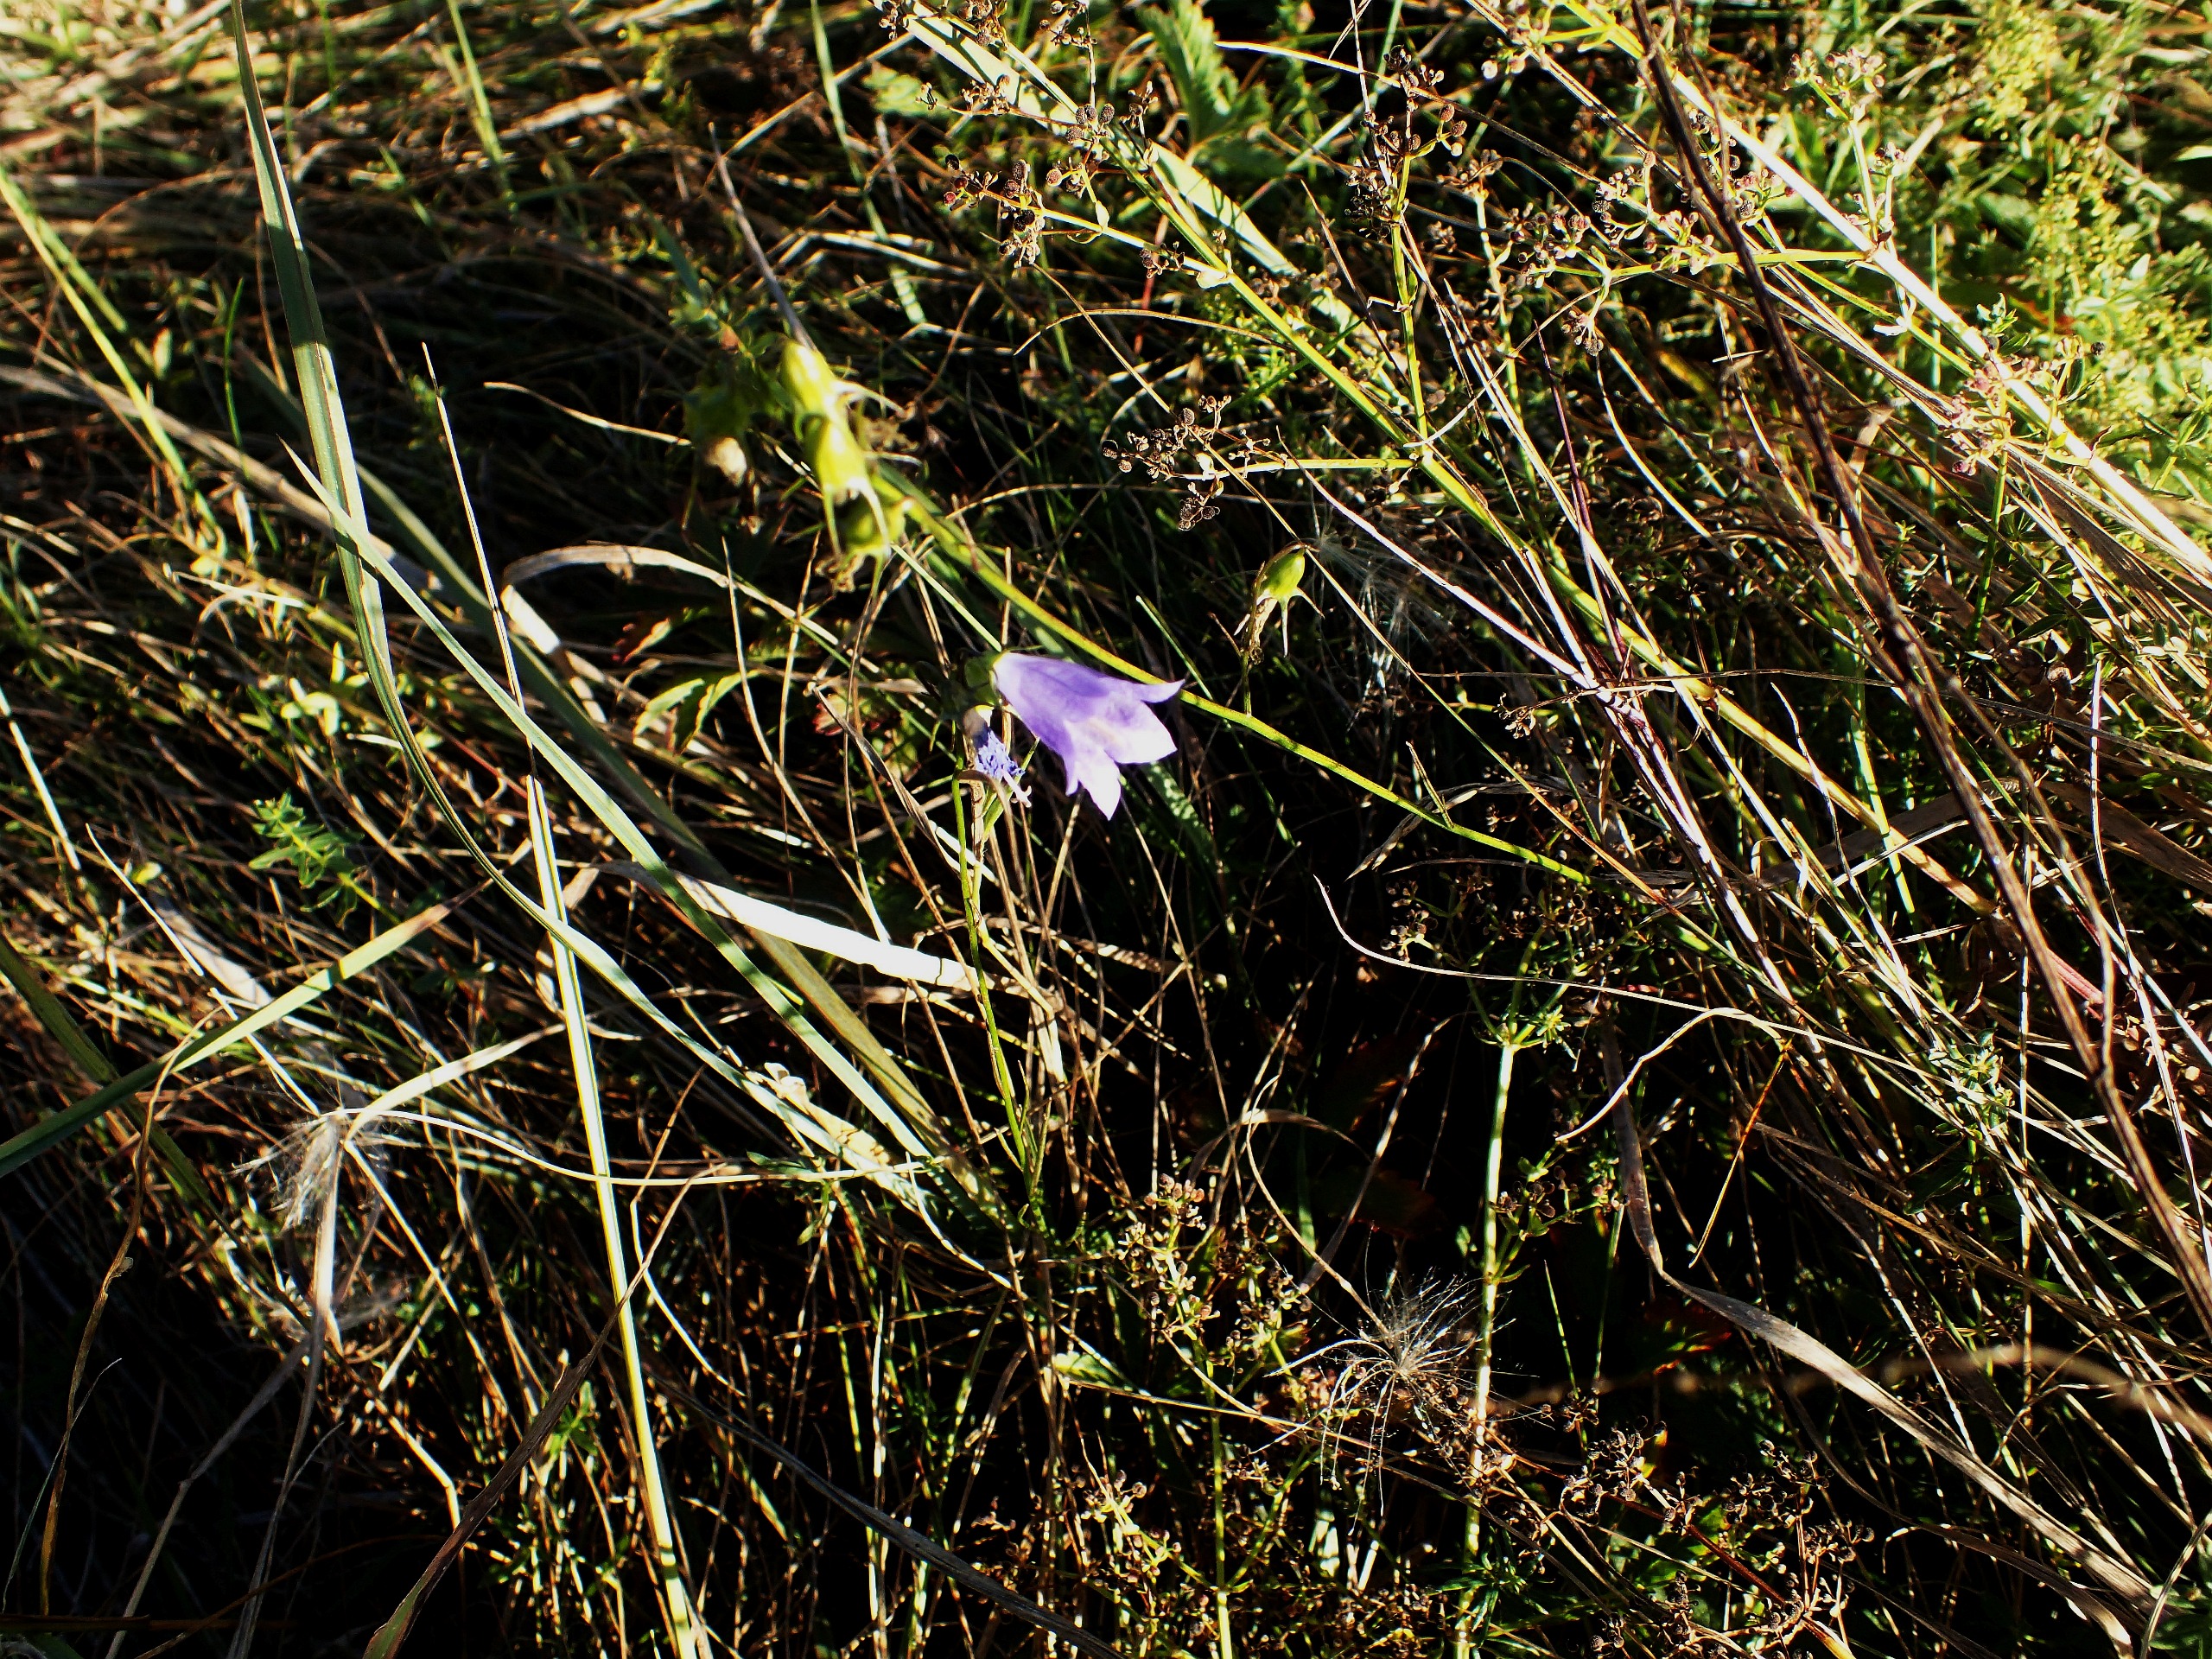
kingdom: Plantae
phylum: Tracheophyta
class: Magnoliopsida
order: Asterales
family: Campanulaceae
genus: Campanula
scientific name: Campanula rotundifolia
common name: Liden klokke
